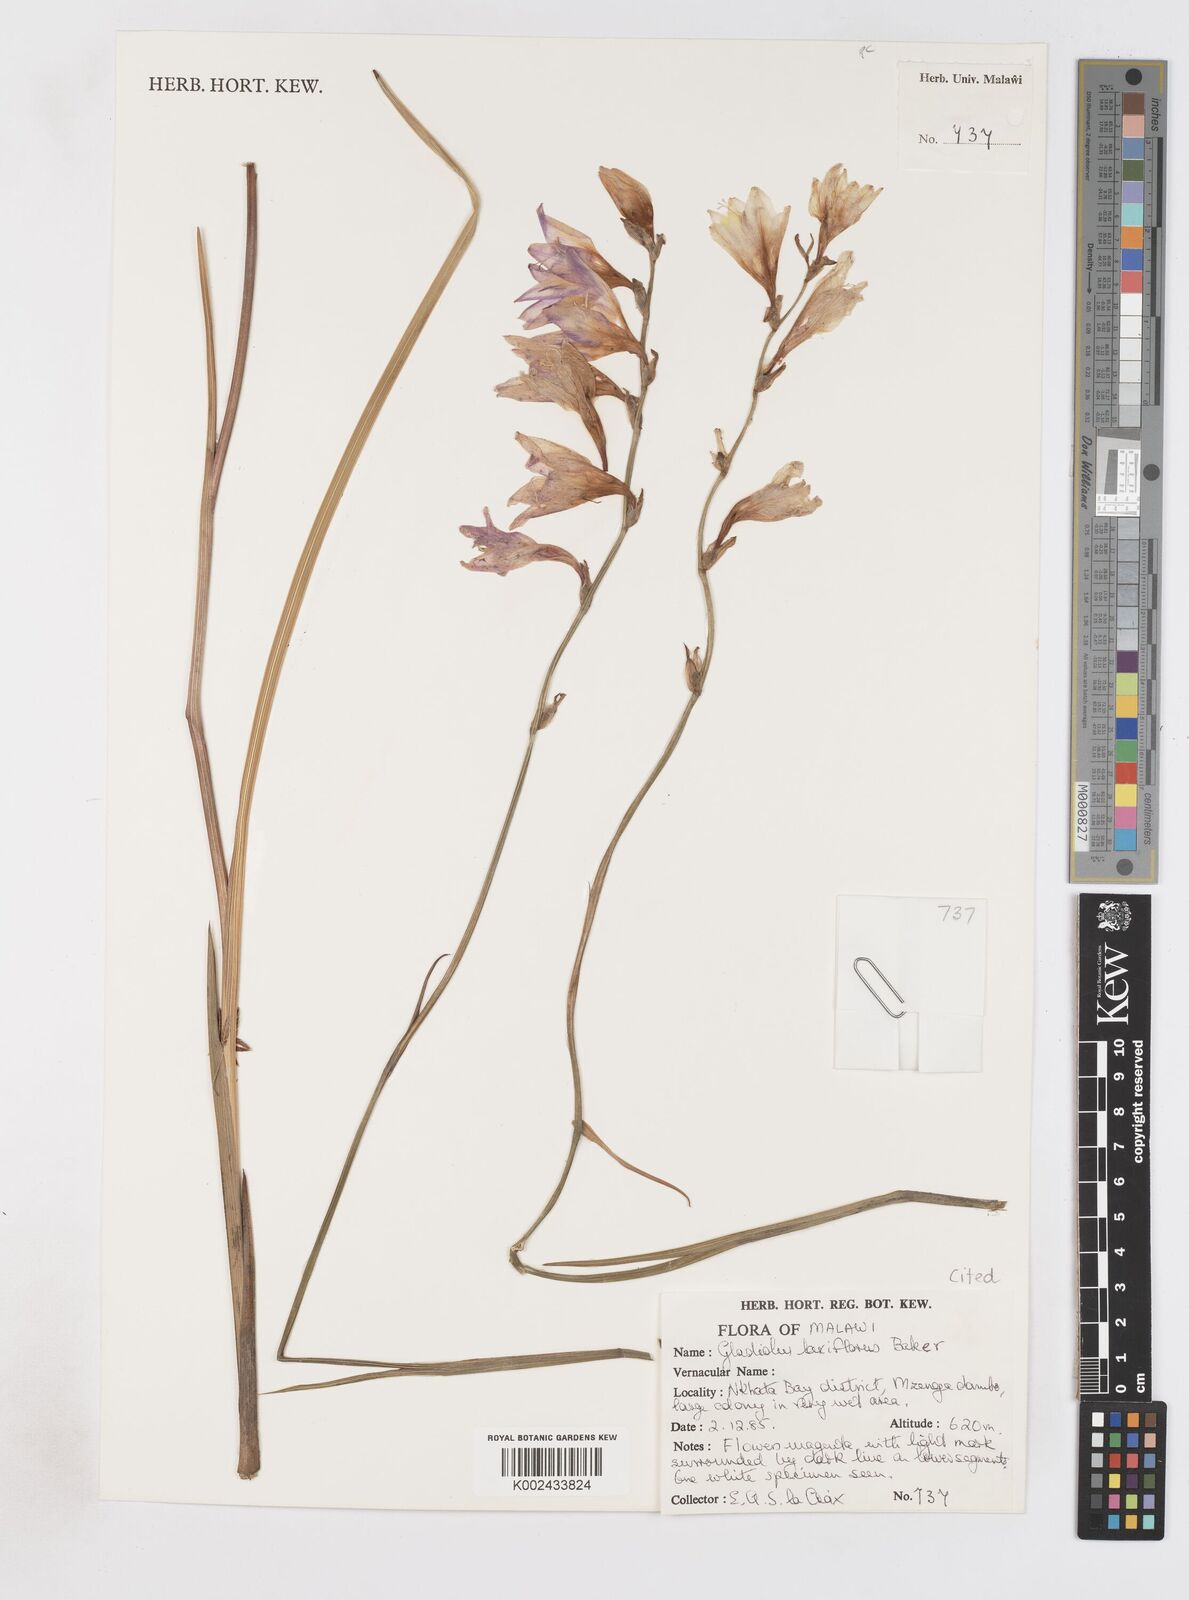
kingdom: Plantae
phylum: Tracheophyta
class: Liliopsida
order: Asparagales
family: Iridaceae
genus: Gladiolus
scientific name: Gladiolus laxiflorus
